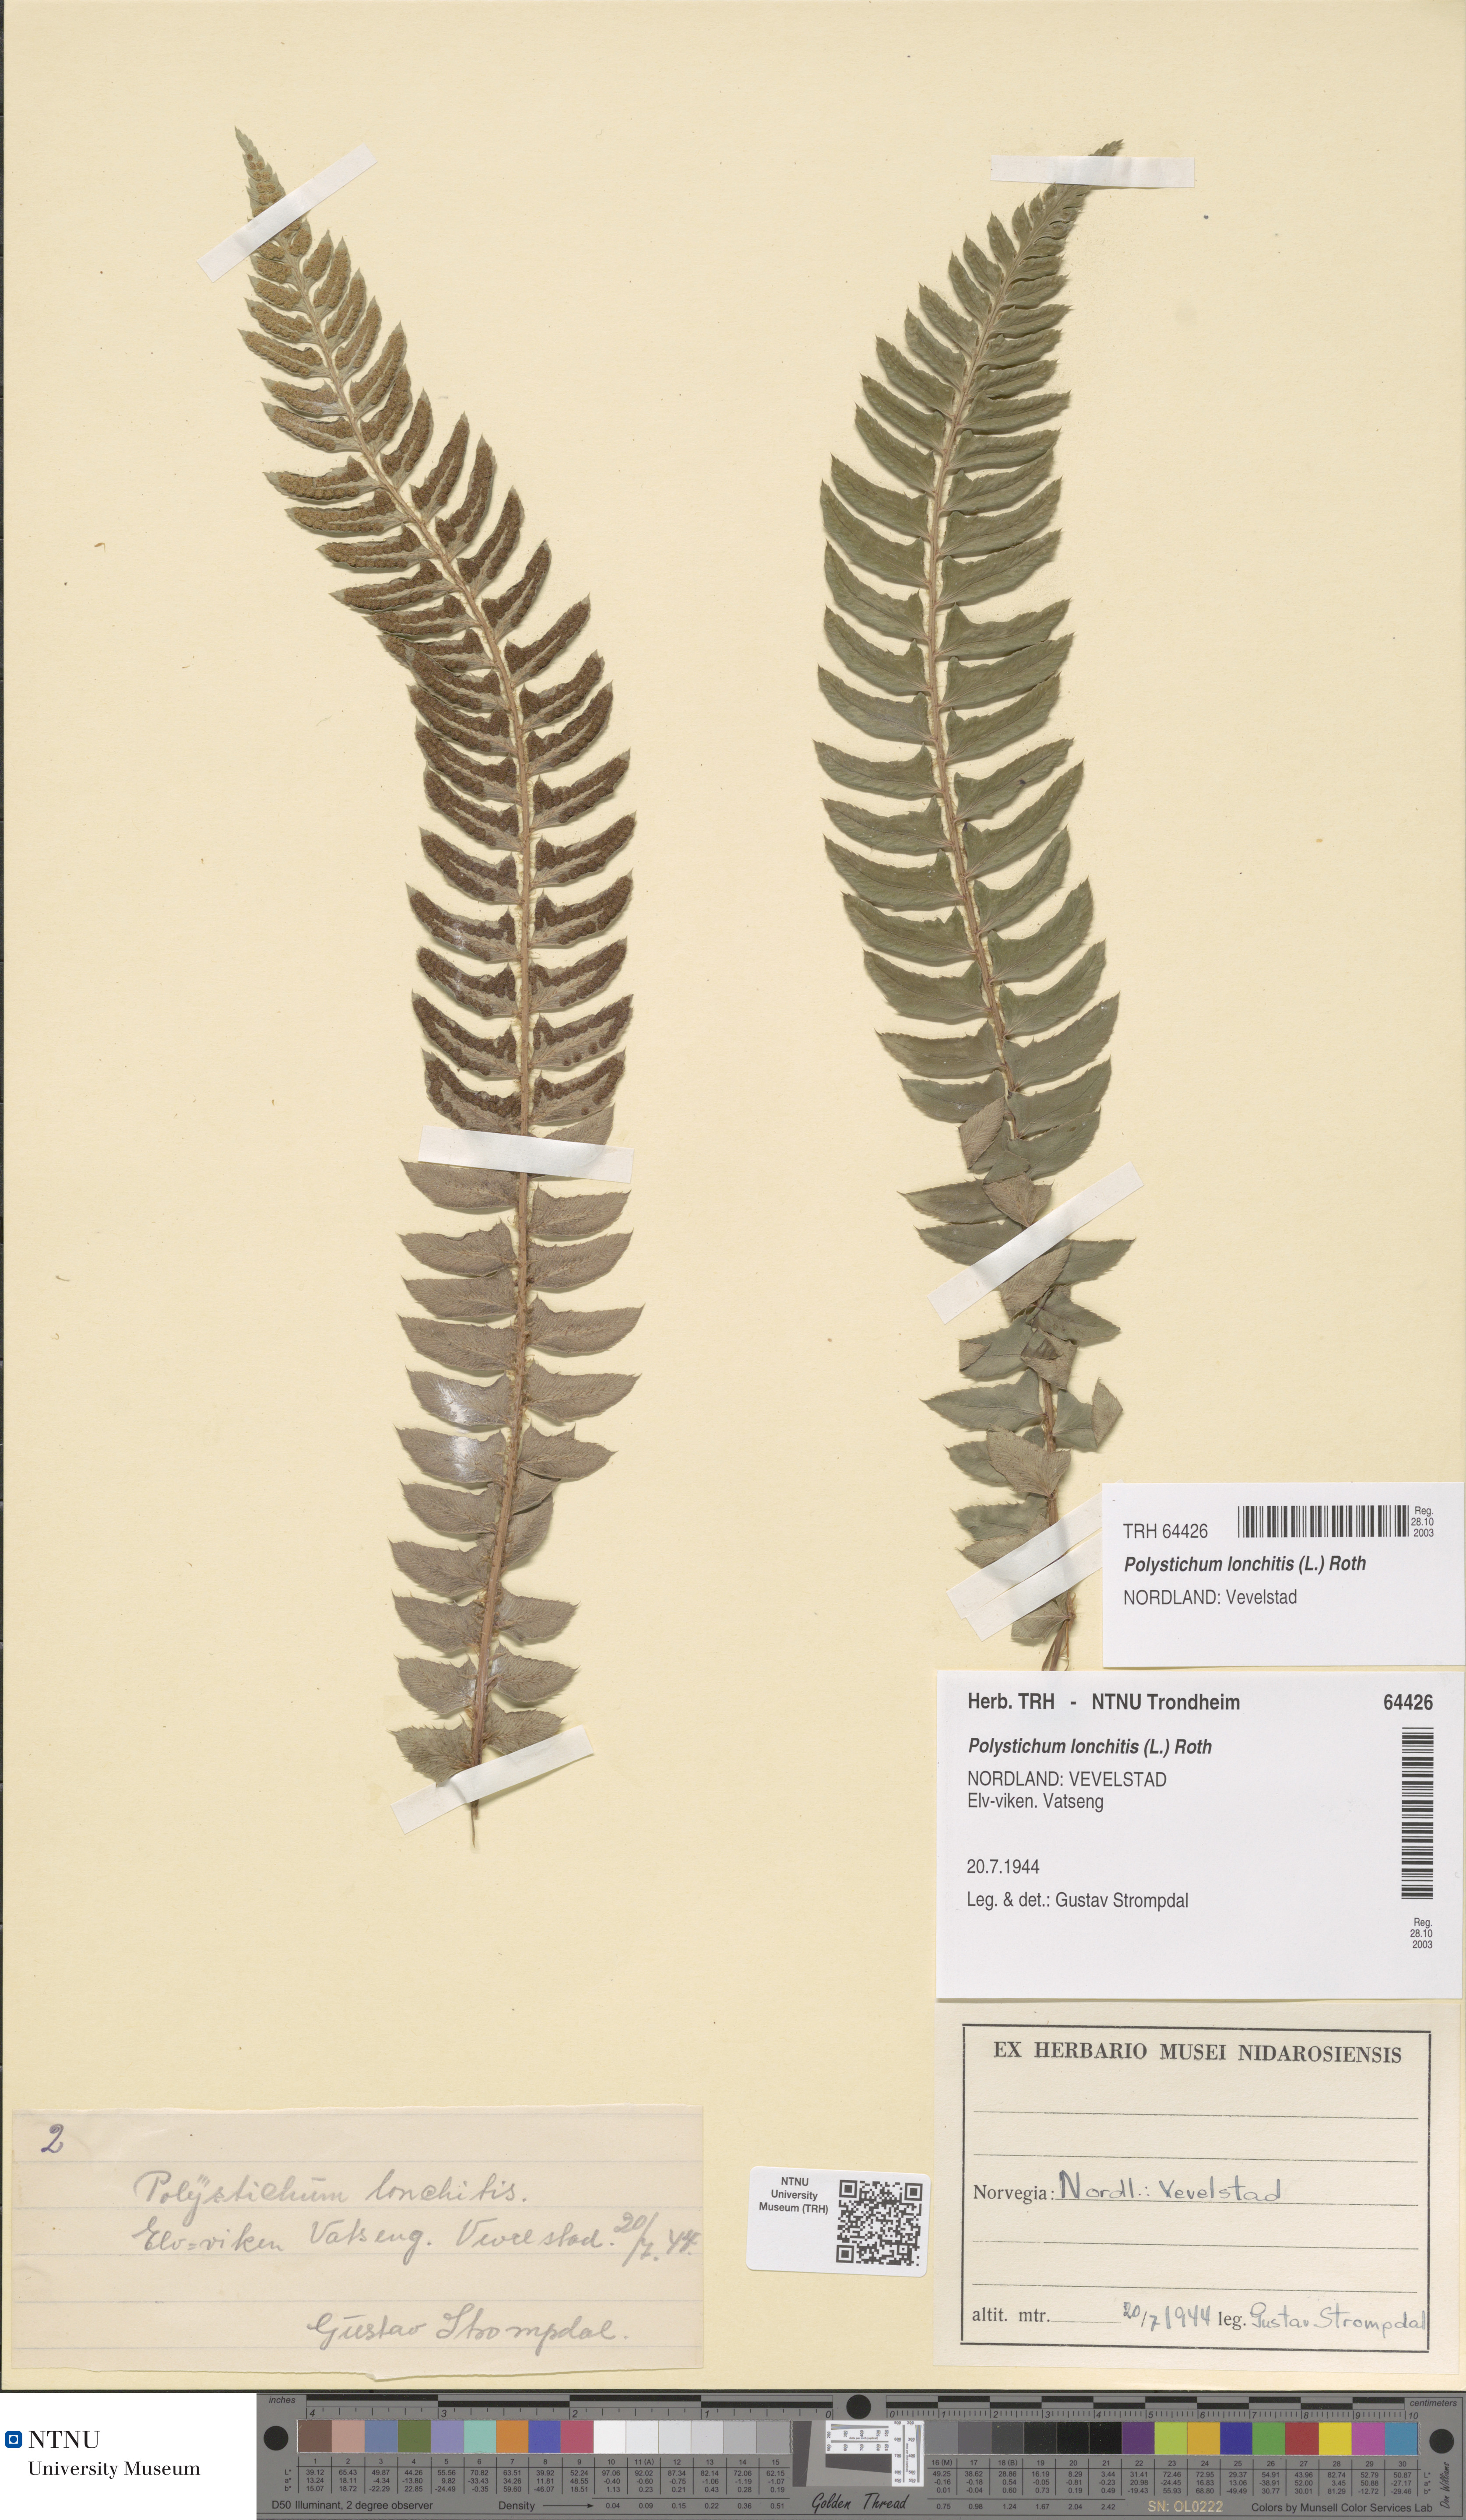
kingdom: Plantae
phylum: Tracheophyta
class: Polypodiopsida
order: Polypodiales
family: Dryopteridaceae
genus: Polystichum
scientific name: Polystichum lonchitis
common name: Holly fern
